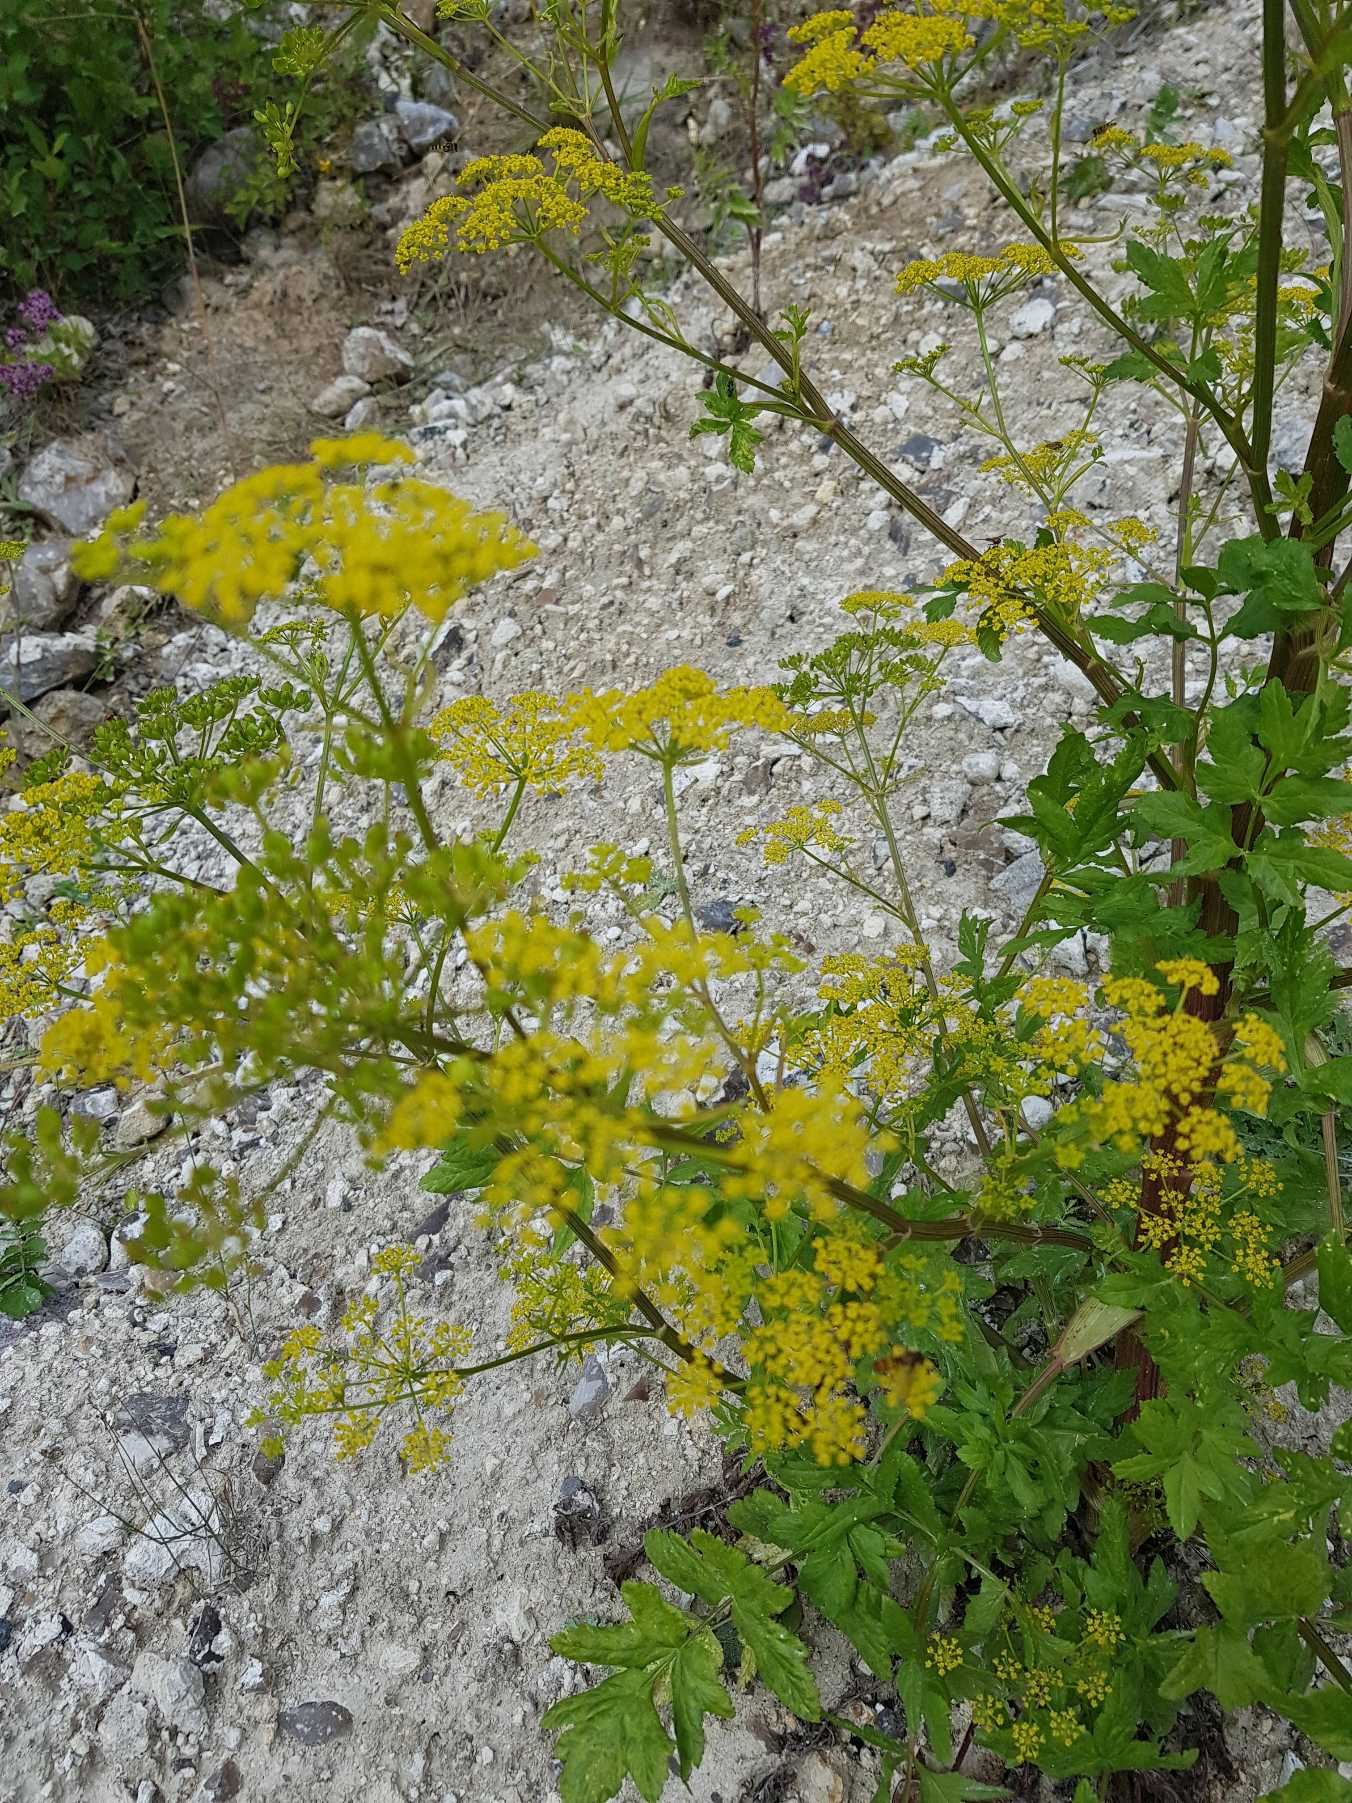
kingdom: Plantae
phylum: Tracheophyta
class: Magnoliopsida
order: Apiales
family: Apiaceae
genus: Pastinaca
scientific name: Pastinaca sativa
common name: Pastinak
